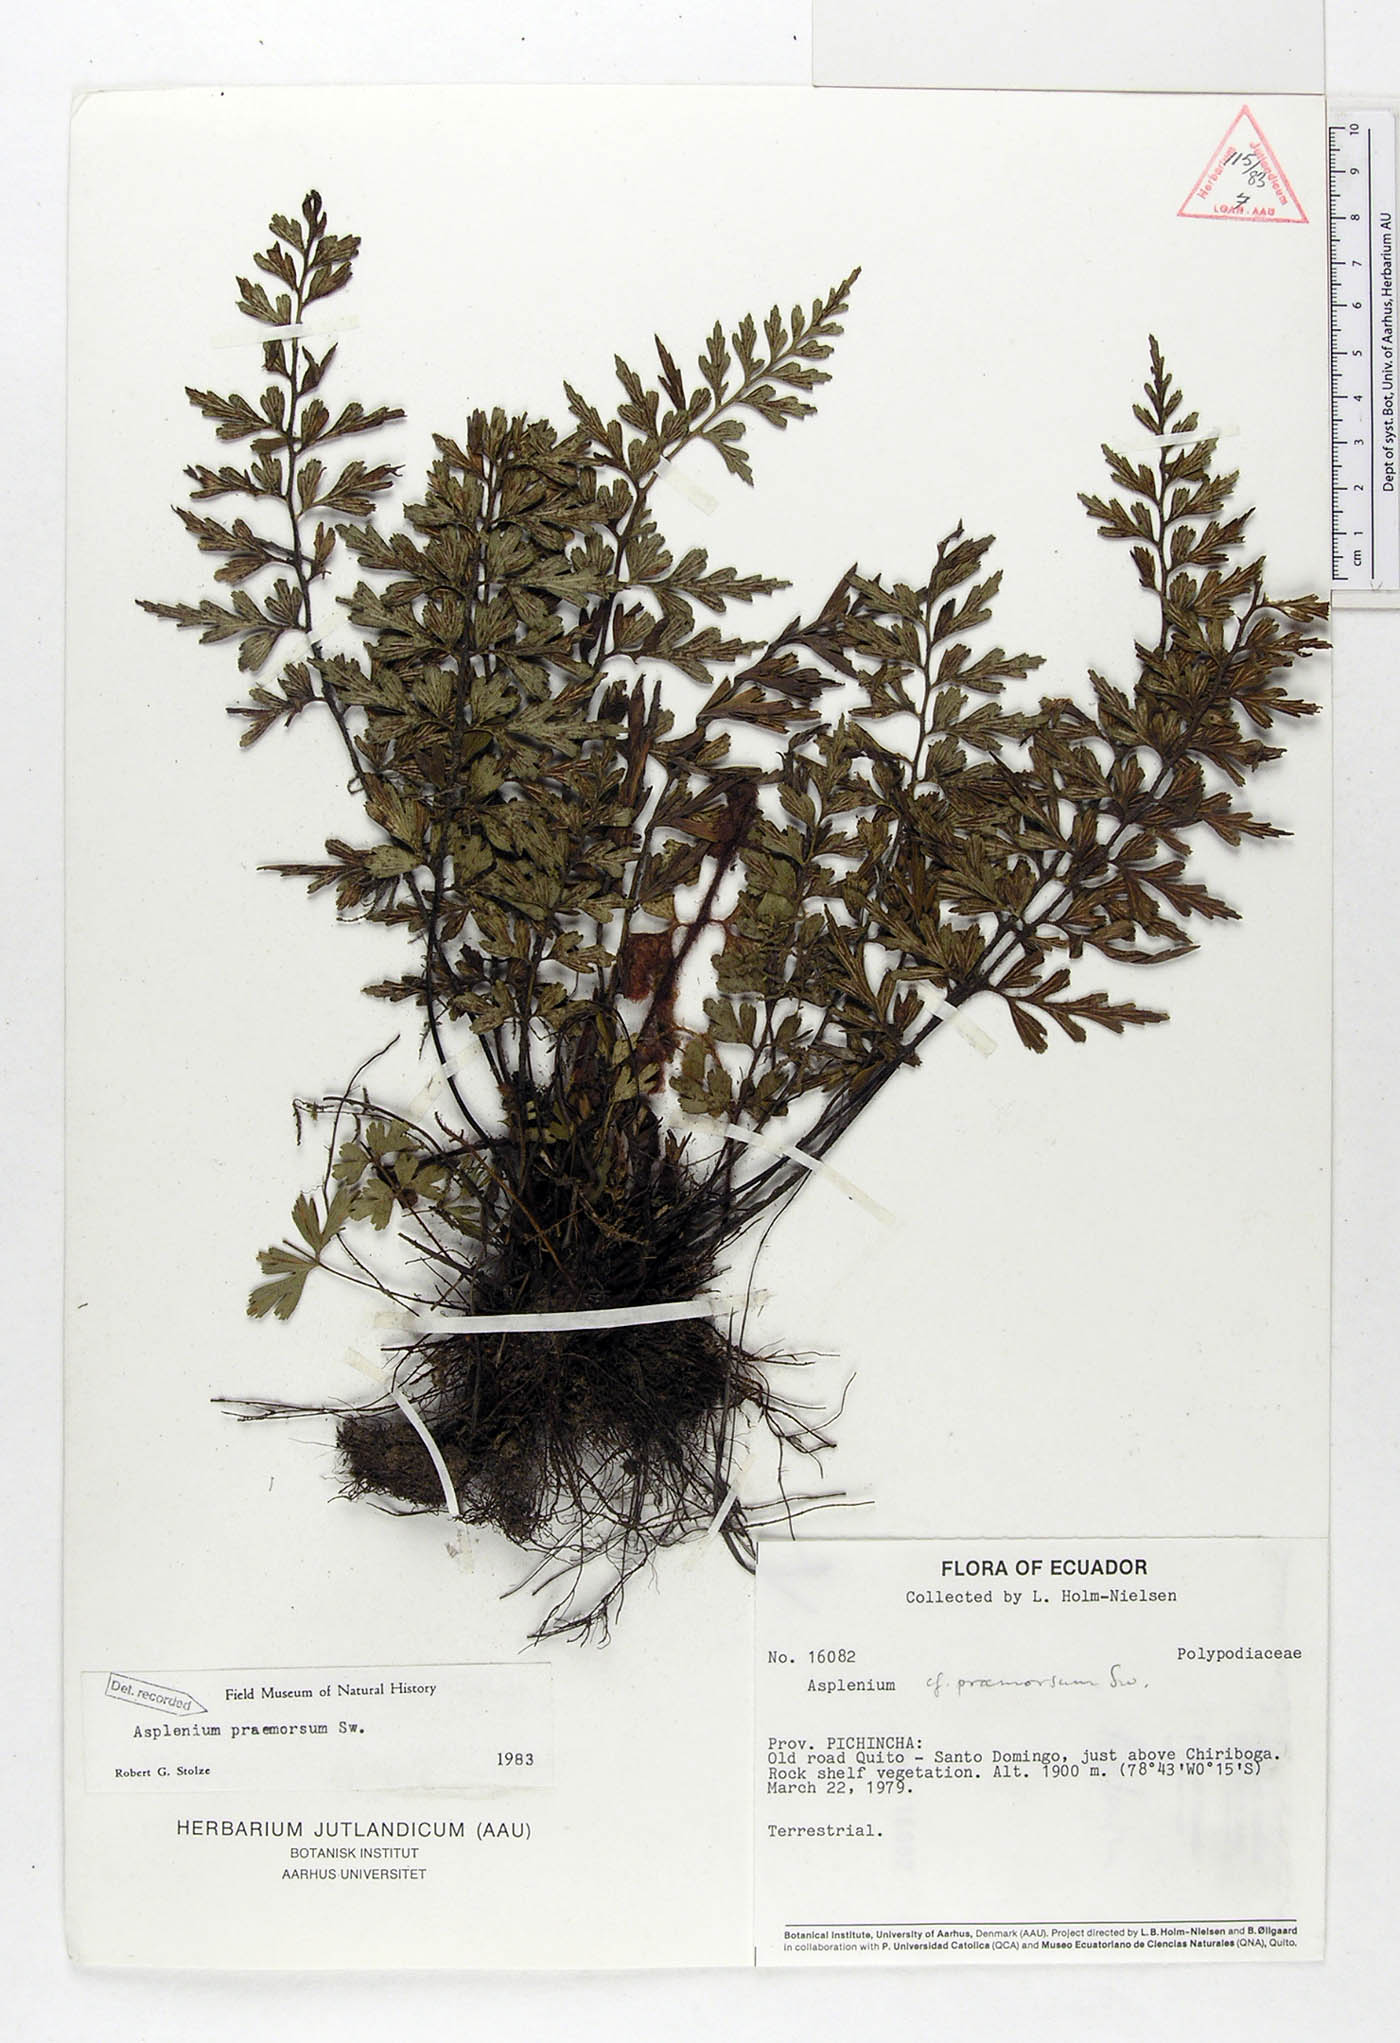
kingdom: Plantae
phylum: Tracheophyta
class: Polypodiopsida
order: Polypodiales
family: Aspleniaceae
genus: Asplenium
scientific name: Asplenium praemorsum
